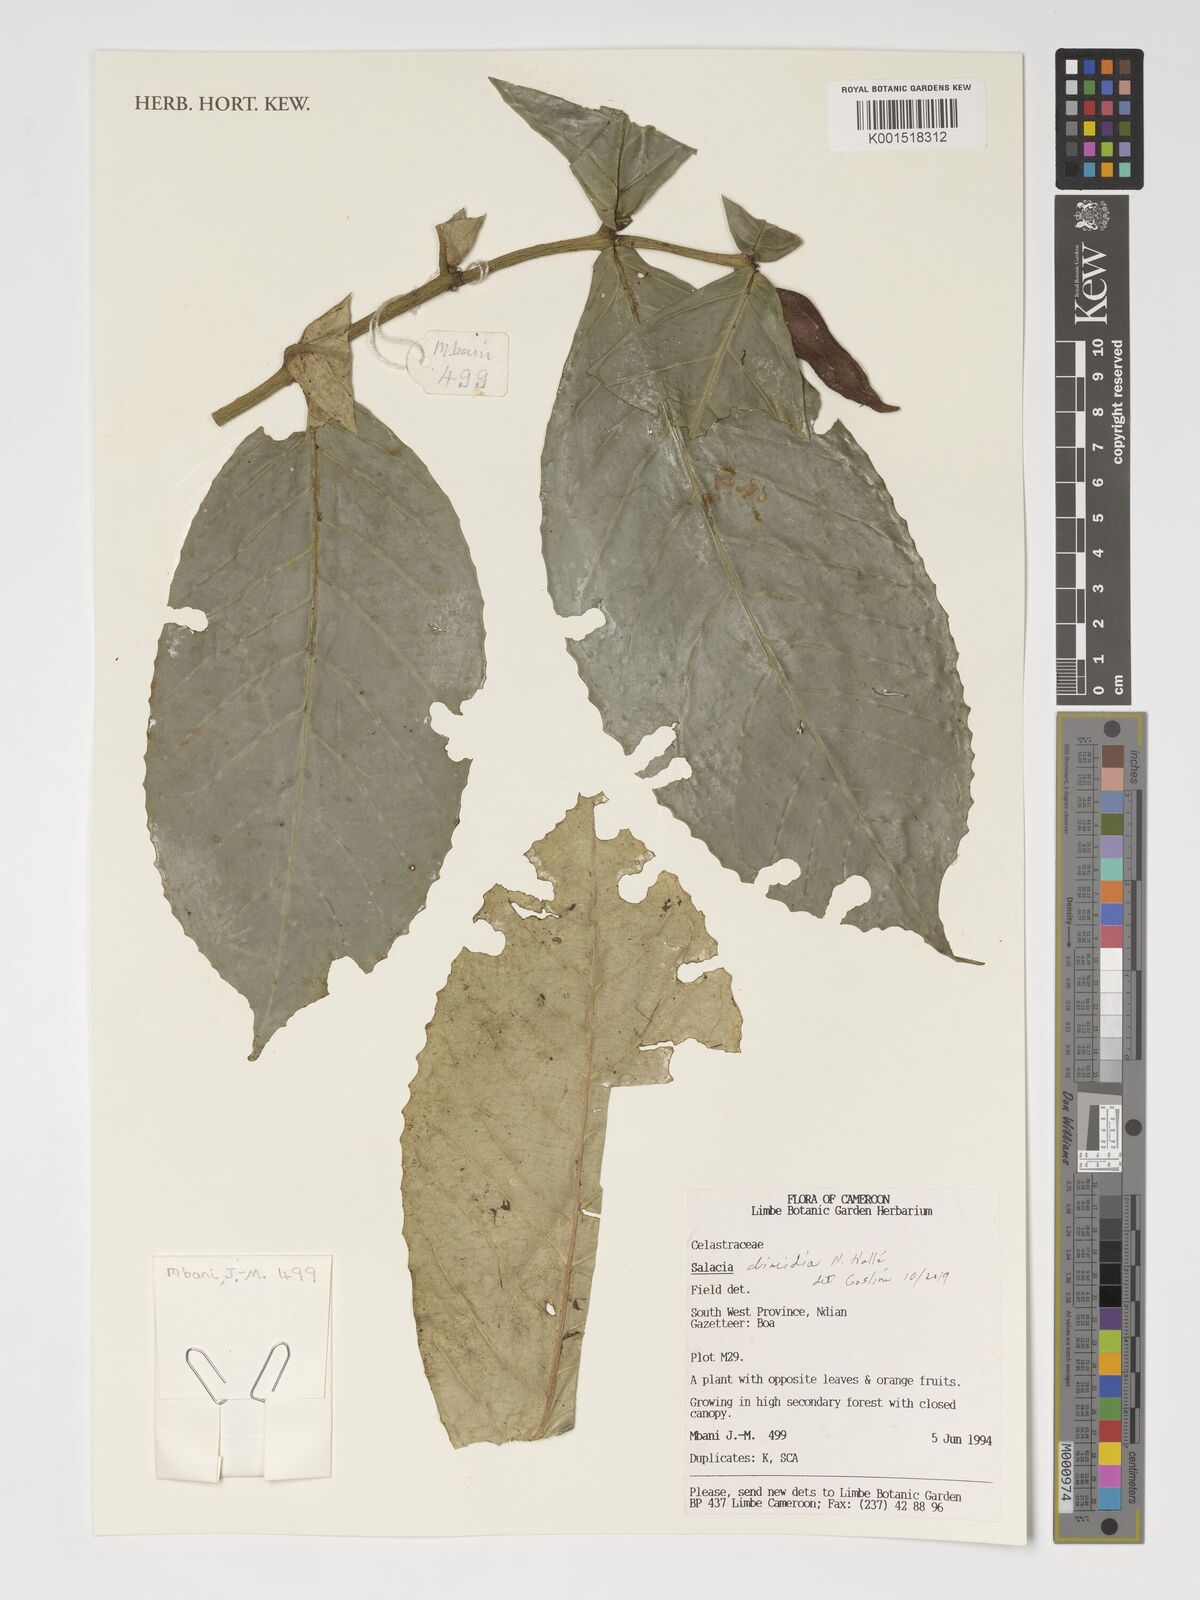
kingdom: Plantae
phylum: Tracheophyta
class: Magnoliopsida
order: Celastrales
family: Celastraceae
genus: Salacia
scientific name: Salacia dimidia
